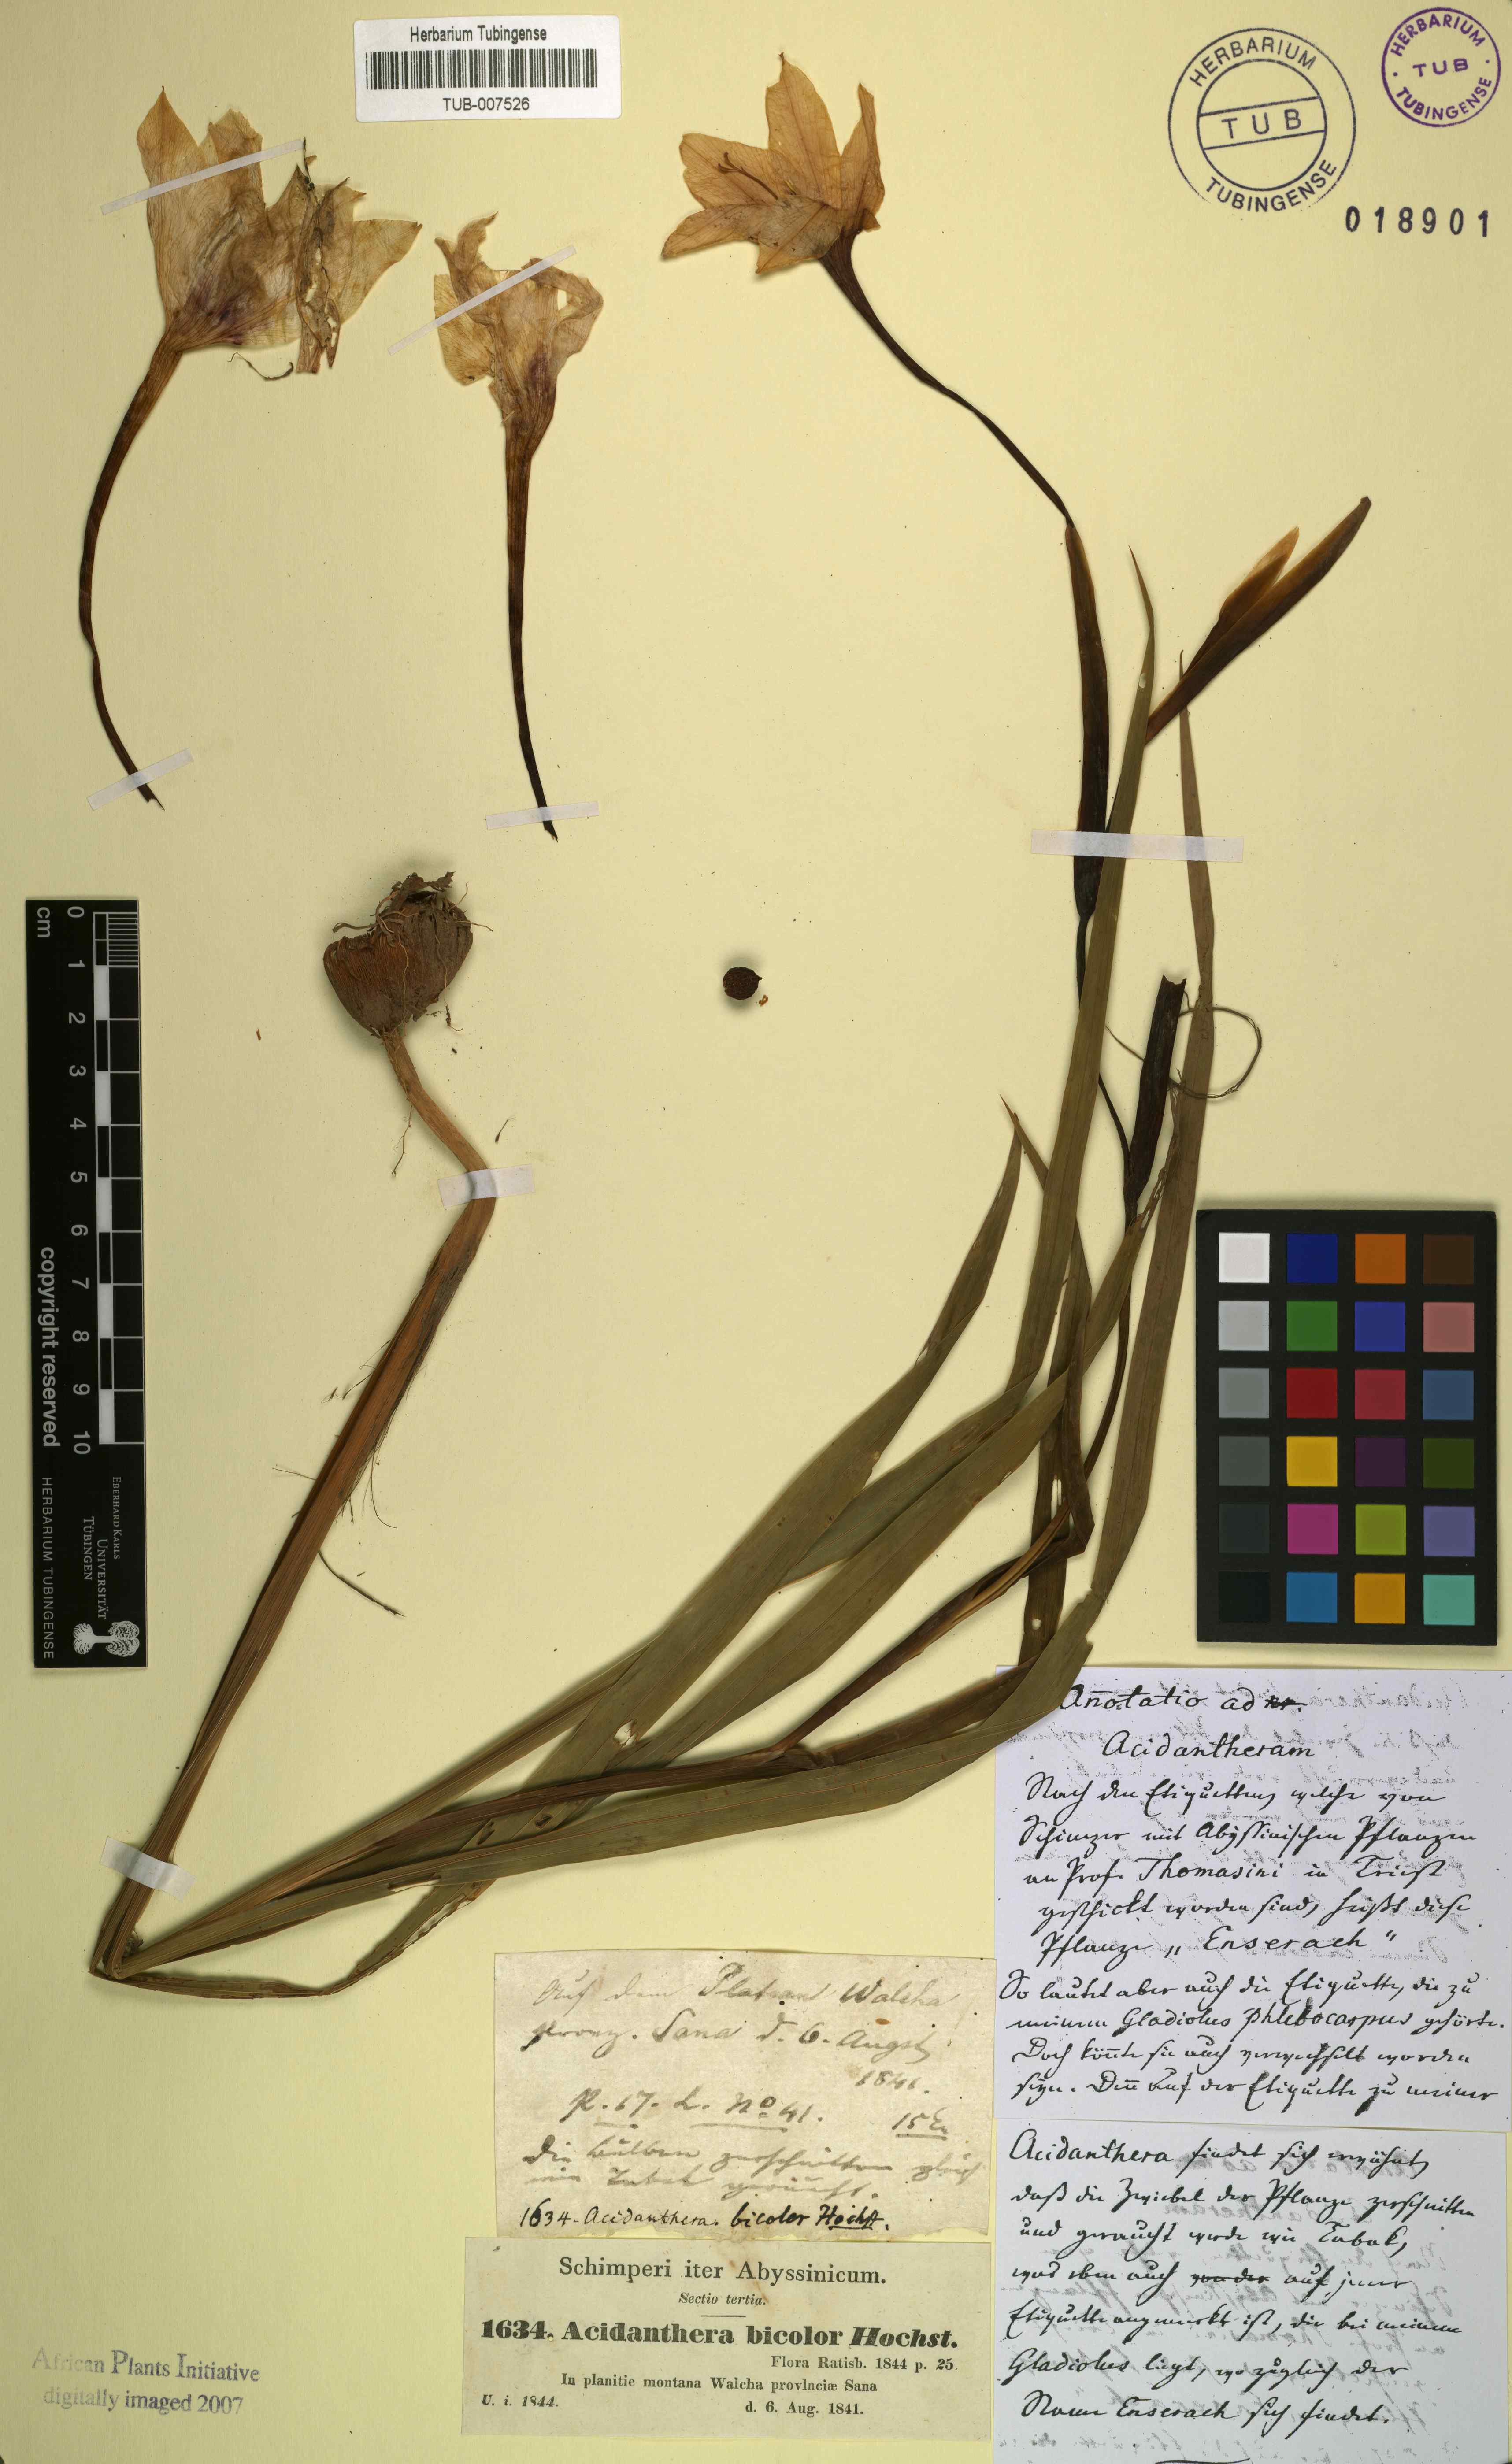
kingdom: Plantae
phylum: Tracheophyta
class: Liliopsida
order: Asparagales
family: Iridaceae
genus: Gladiolus
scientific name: Gladiolus murielae
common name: Acidanthera
